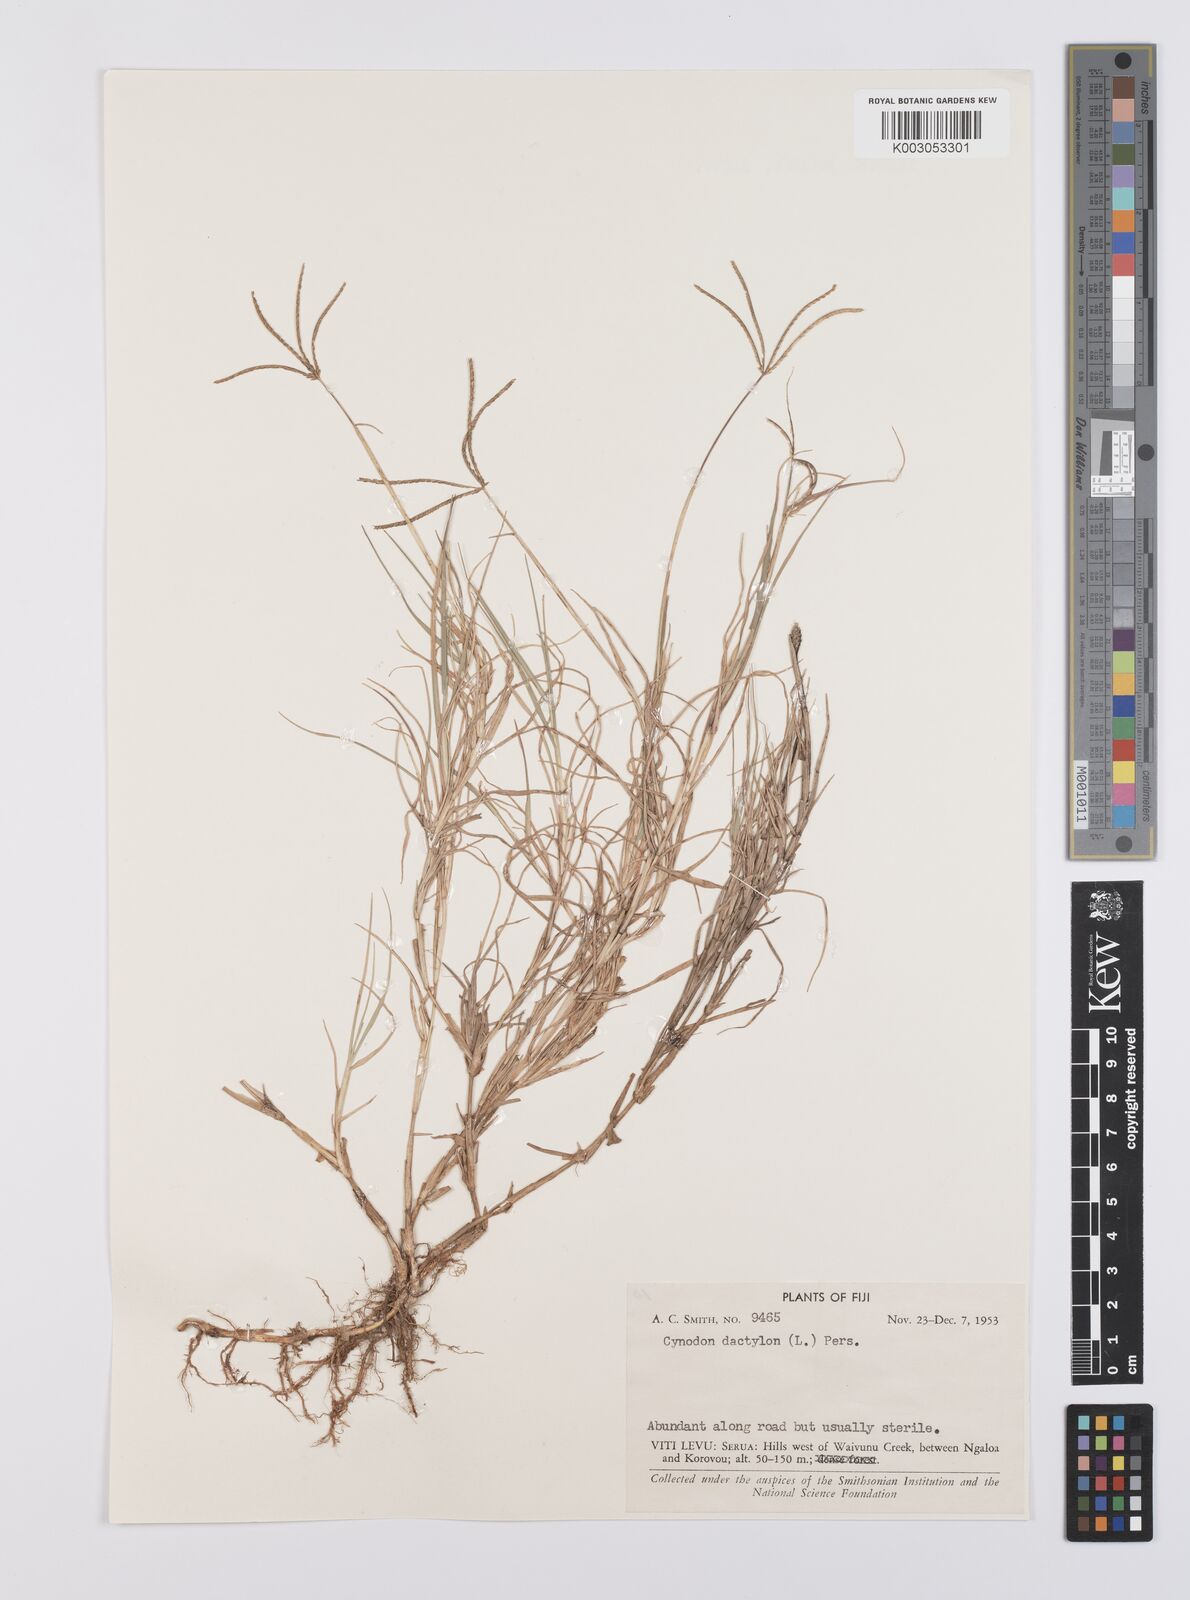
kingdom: Plantae
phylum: Tracheophyta
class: Liliopsida
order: Poales
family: Poaceae
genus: Cynodon
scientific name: Cynodon dactylon
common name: Bermuda grass
